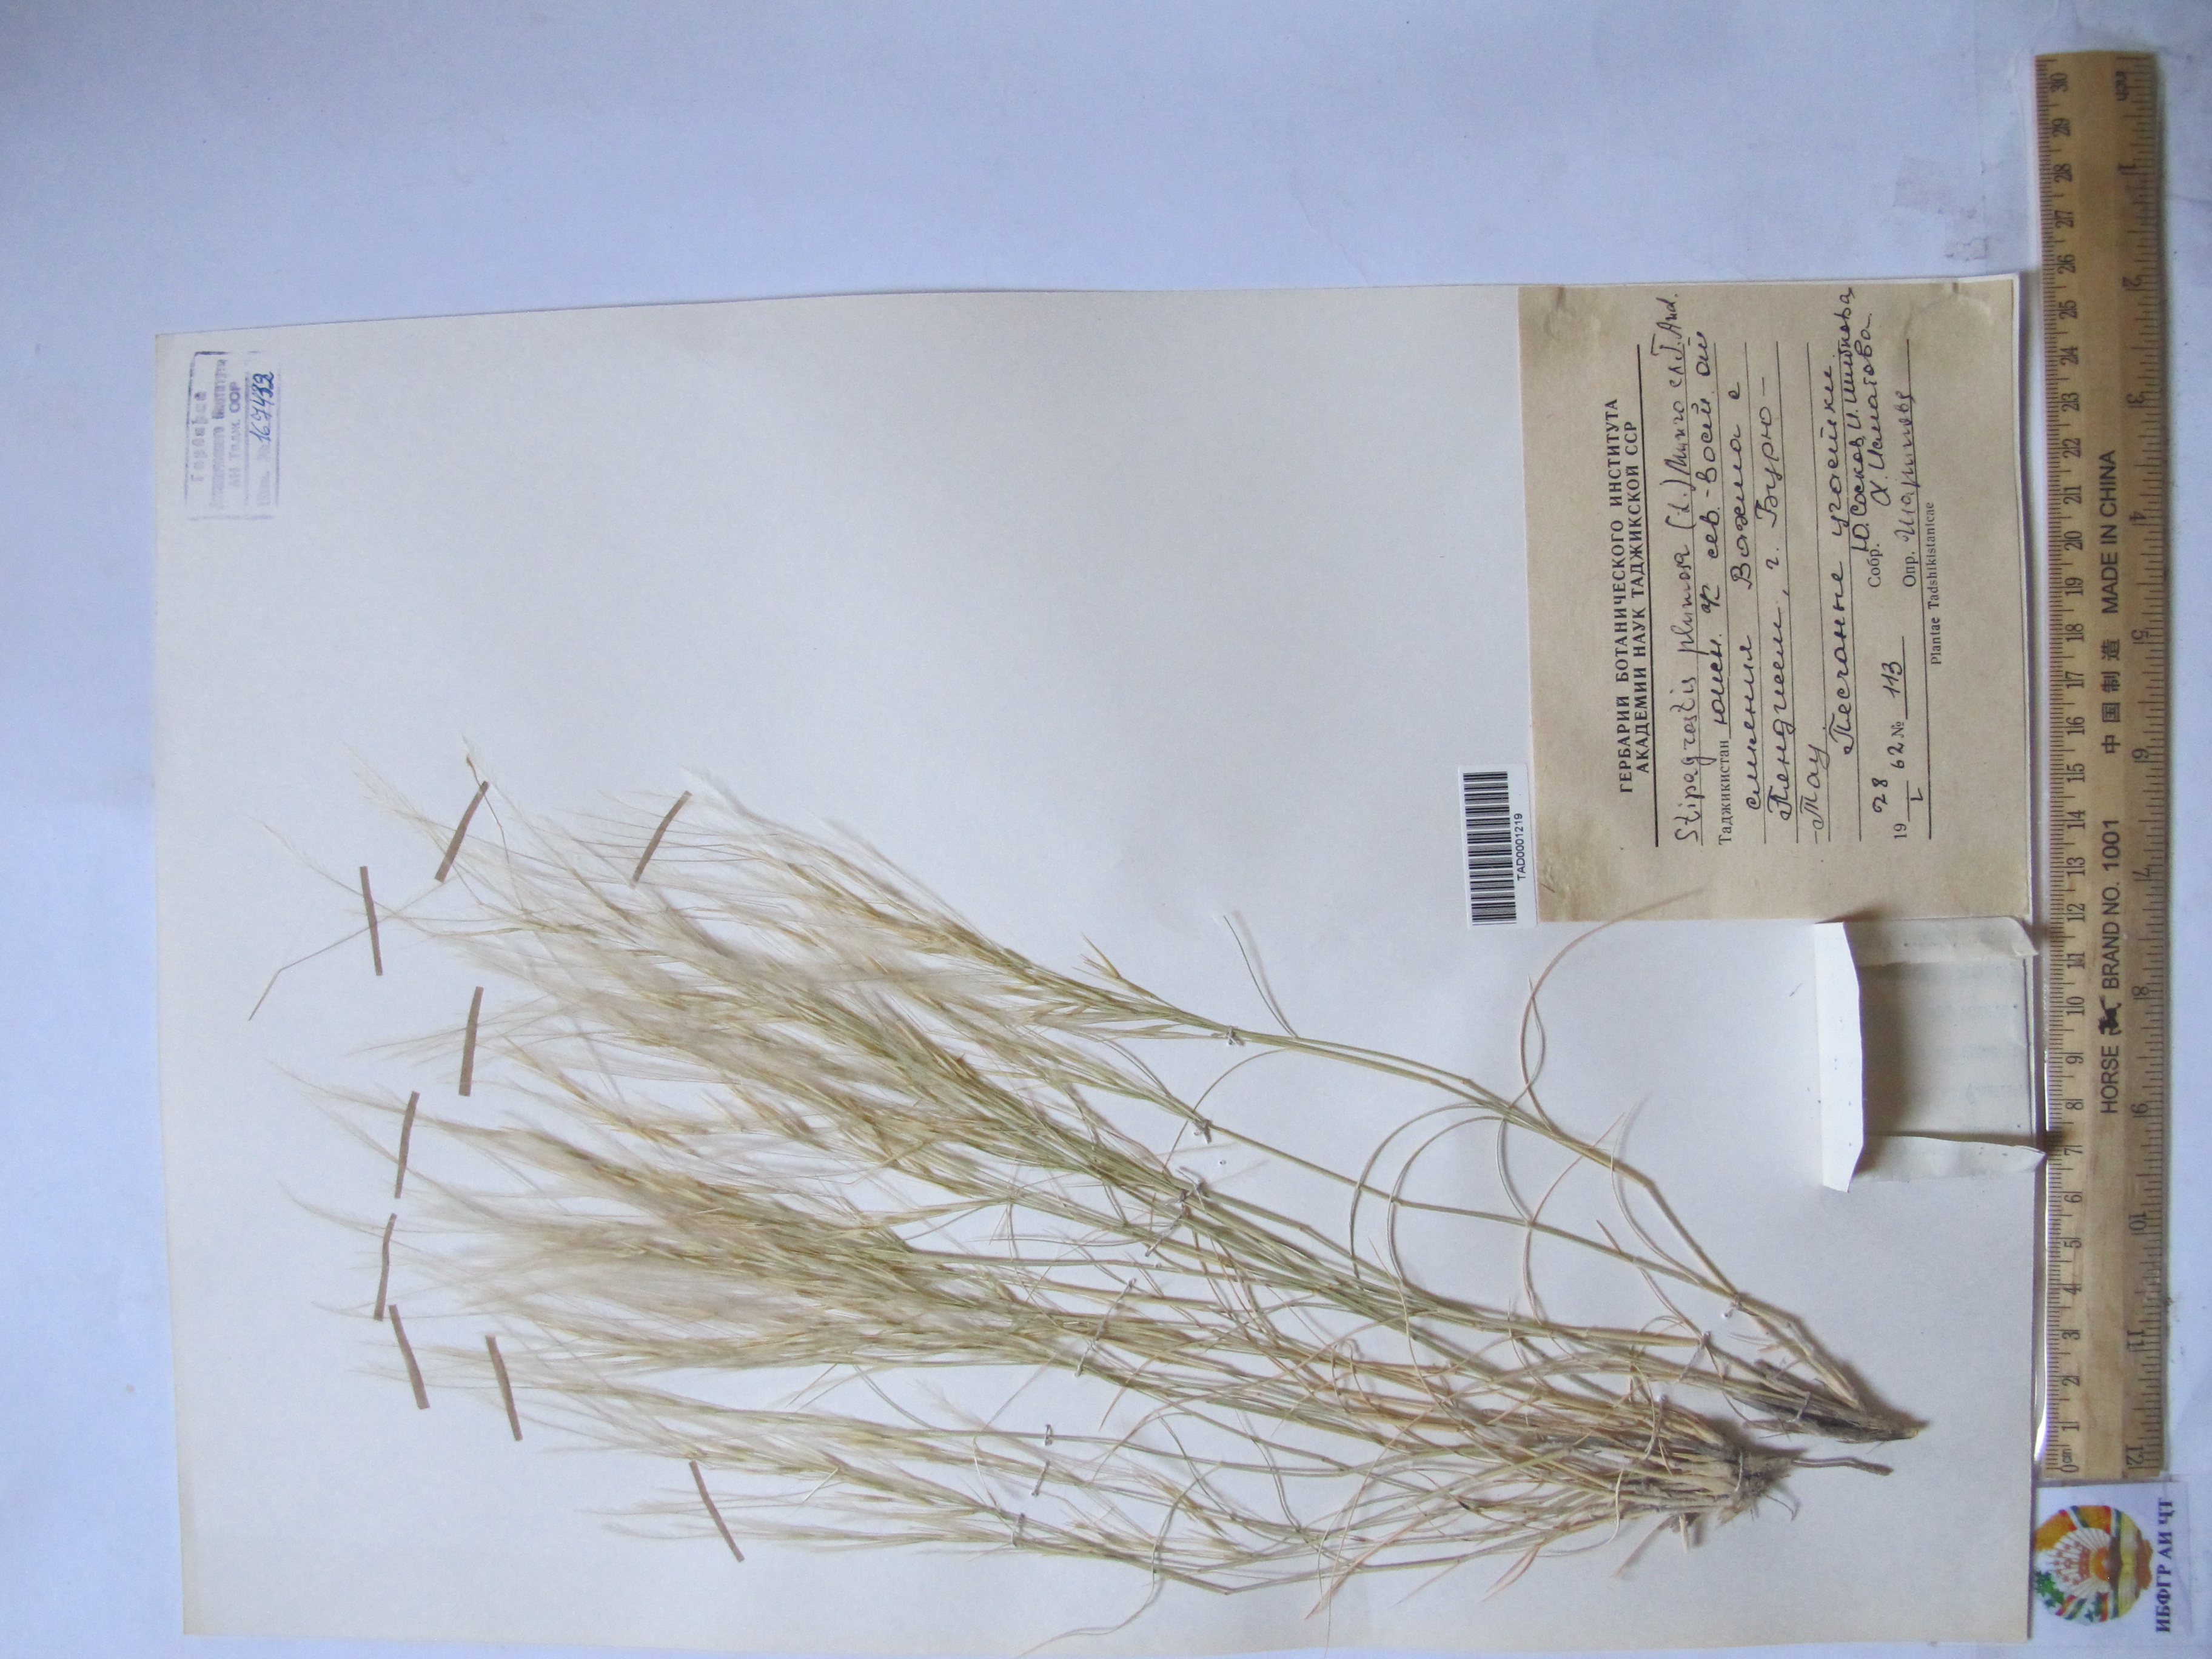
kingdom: Plantae
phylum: Tracheophyta
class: Liliopsida
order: Poales
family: Poaceae
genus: Stipagrostis
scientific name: Stipagrostis plumosa
